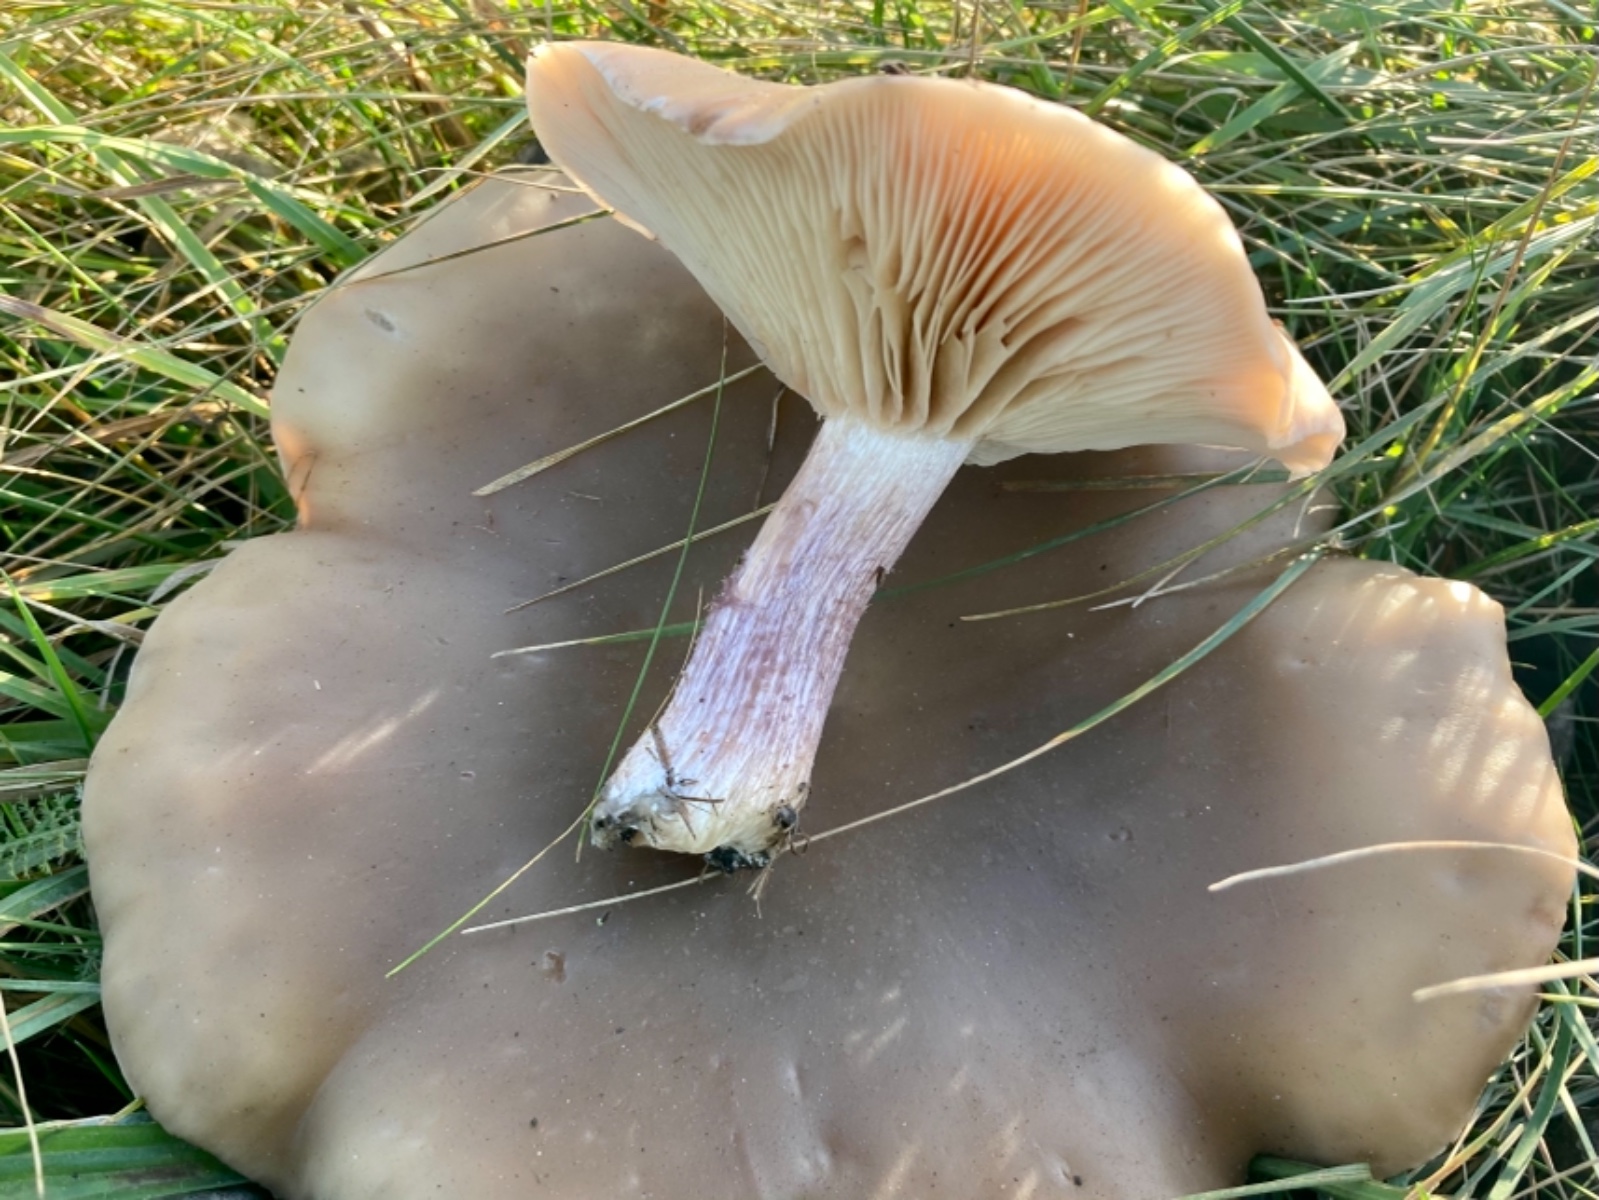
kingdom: Fungi
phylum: Basidiomycota
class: Agaricomycetes
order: Agaricales
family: Tricholomataceae
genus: Lepista
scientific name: Lepista personata
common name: bleg hekseringshat
